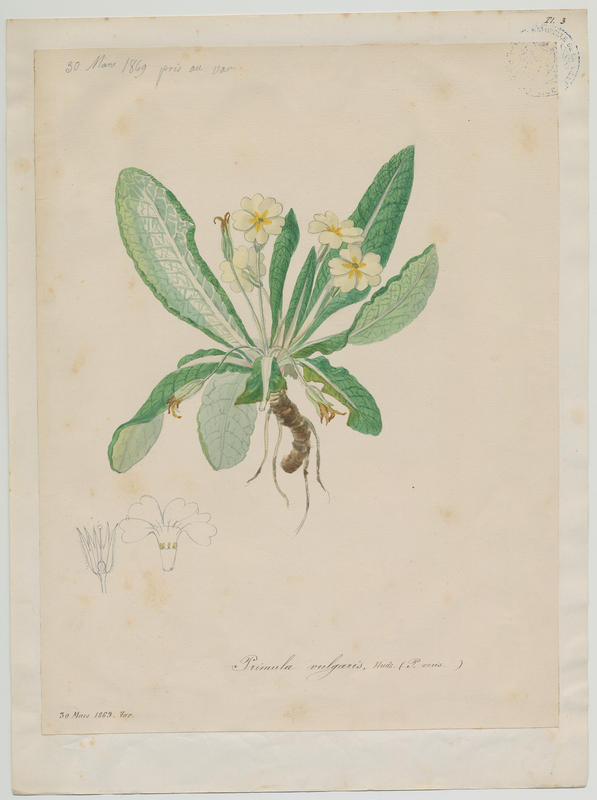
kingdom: Plantae
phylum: Tracheophyta
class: Magnoliopsida
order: Ericales
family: Primulaceae
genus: Primula
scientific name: Primula vulgaris
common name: Primrose
